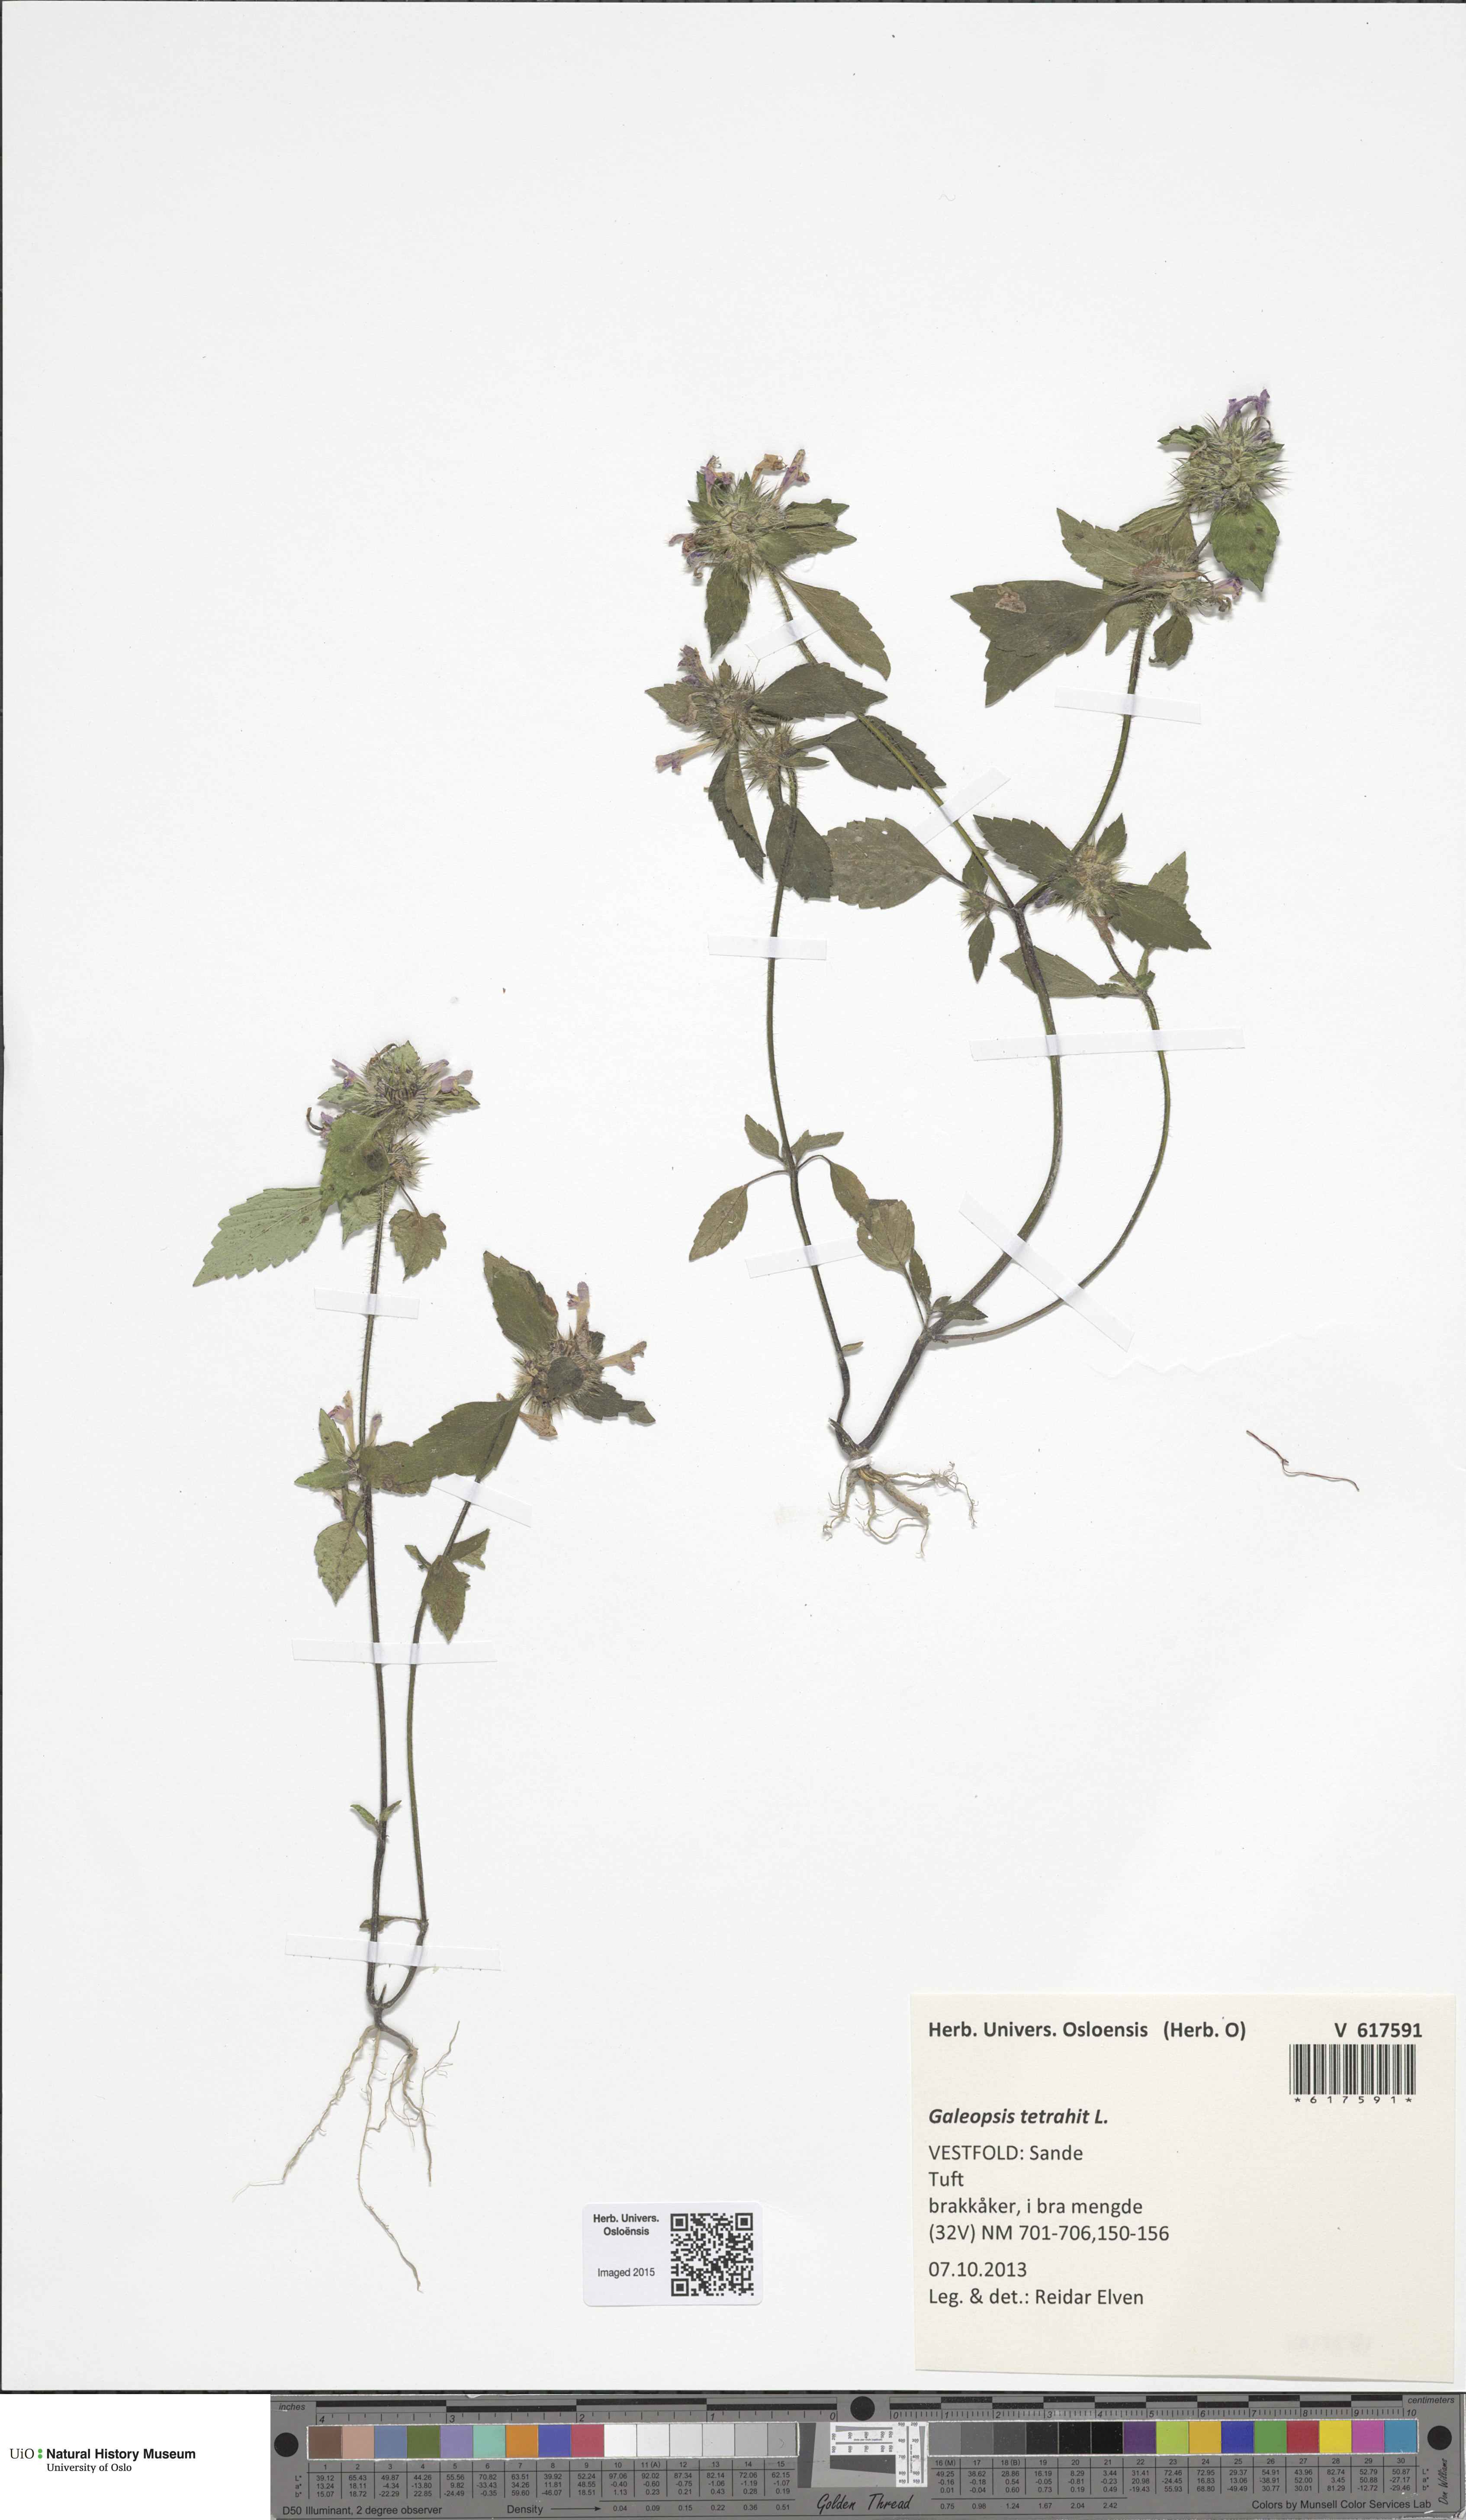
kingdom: Plantae
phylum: Tracheophyta
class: Magnoliopsida
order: Lamiales
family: Lamiaceae
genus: Galeopsis
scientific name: Galeopsis tetrahit
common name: Common hemp-nettle
